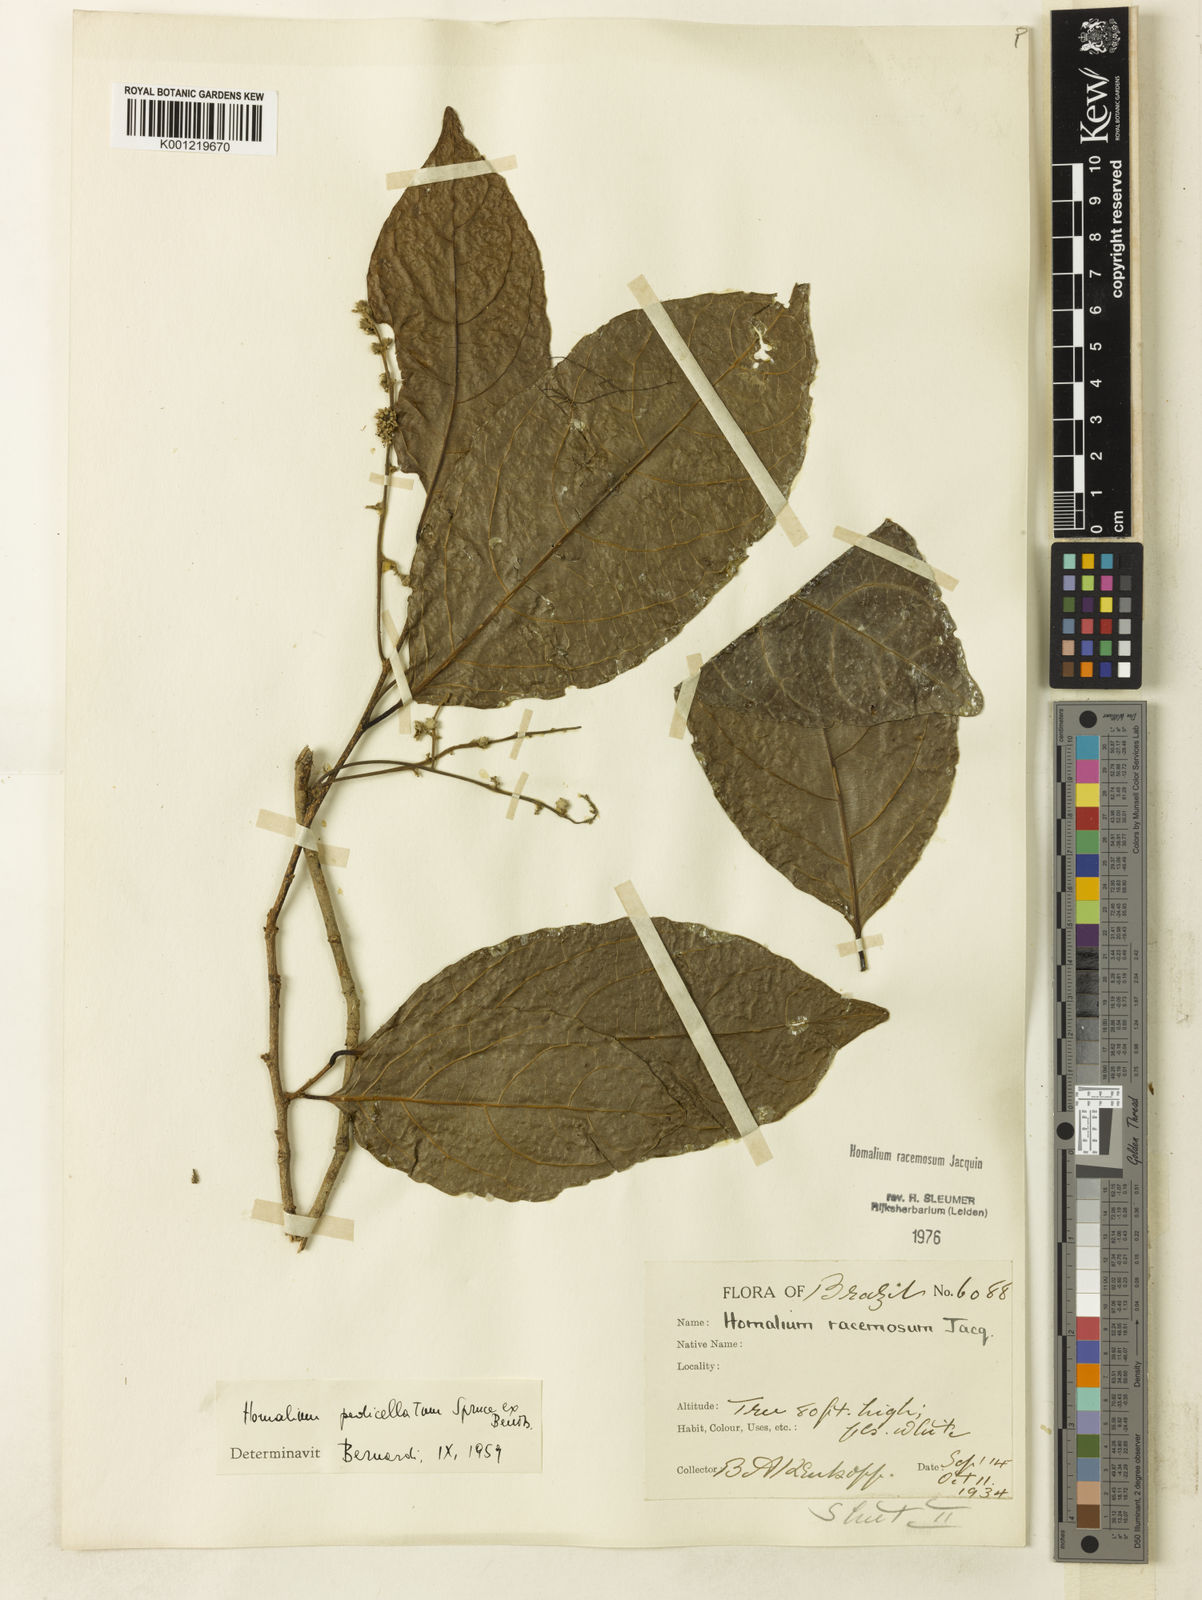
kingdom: Plantae
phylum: Tracheophyta
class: Magnoliopsida
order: Malpighiales
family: Salicaceae
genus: Homalium
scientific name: Homalium racemosum
